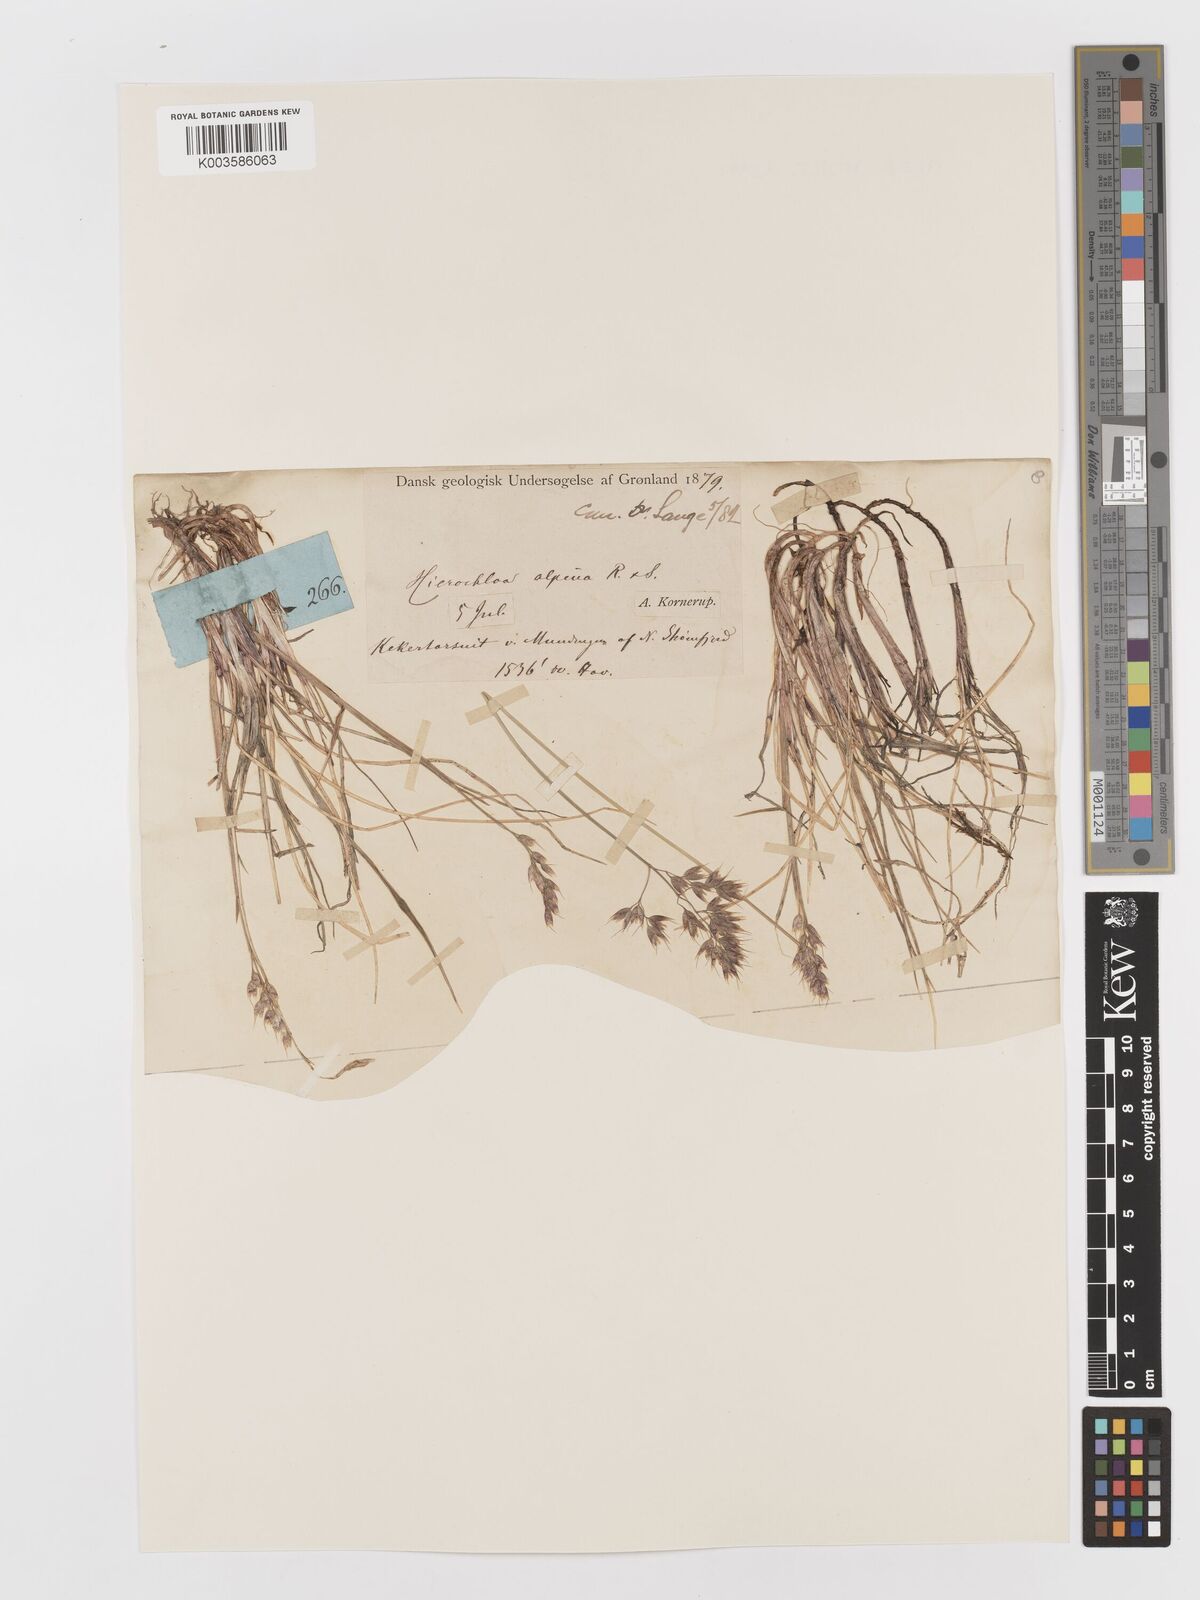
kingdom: Plantae
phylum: Tracheophyta
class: Liliopsida
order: Poales
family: Poaceae
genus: Anthoxanthum
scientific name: Anthoxanthum monticola
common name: Alpine sweetgrass
